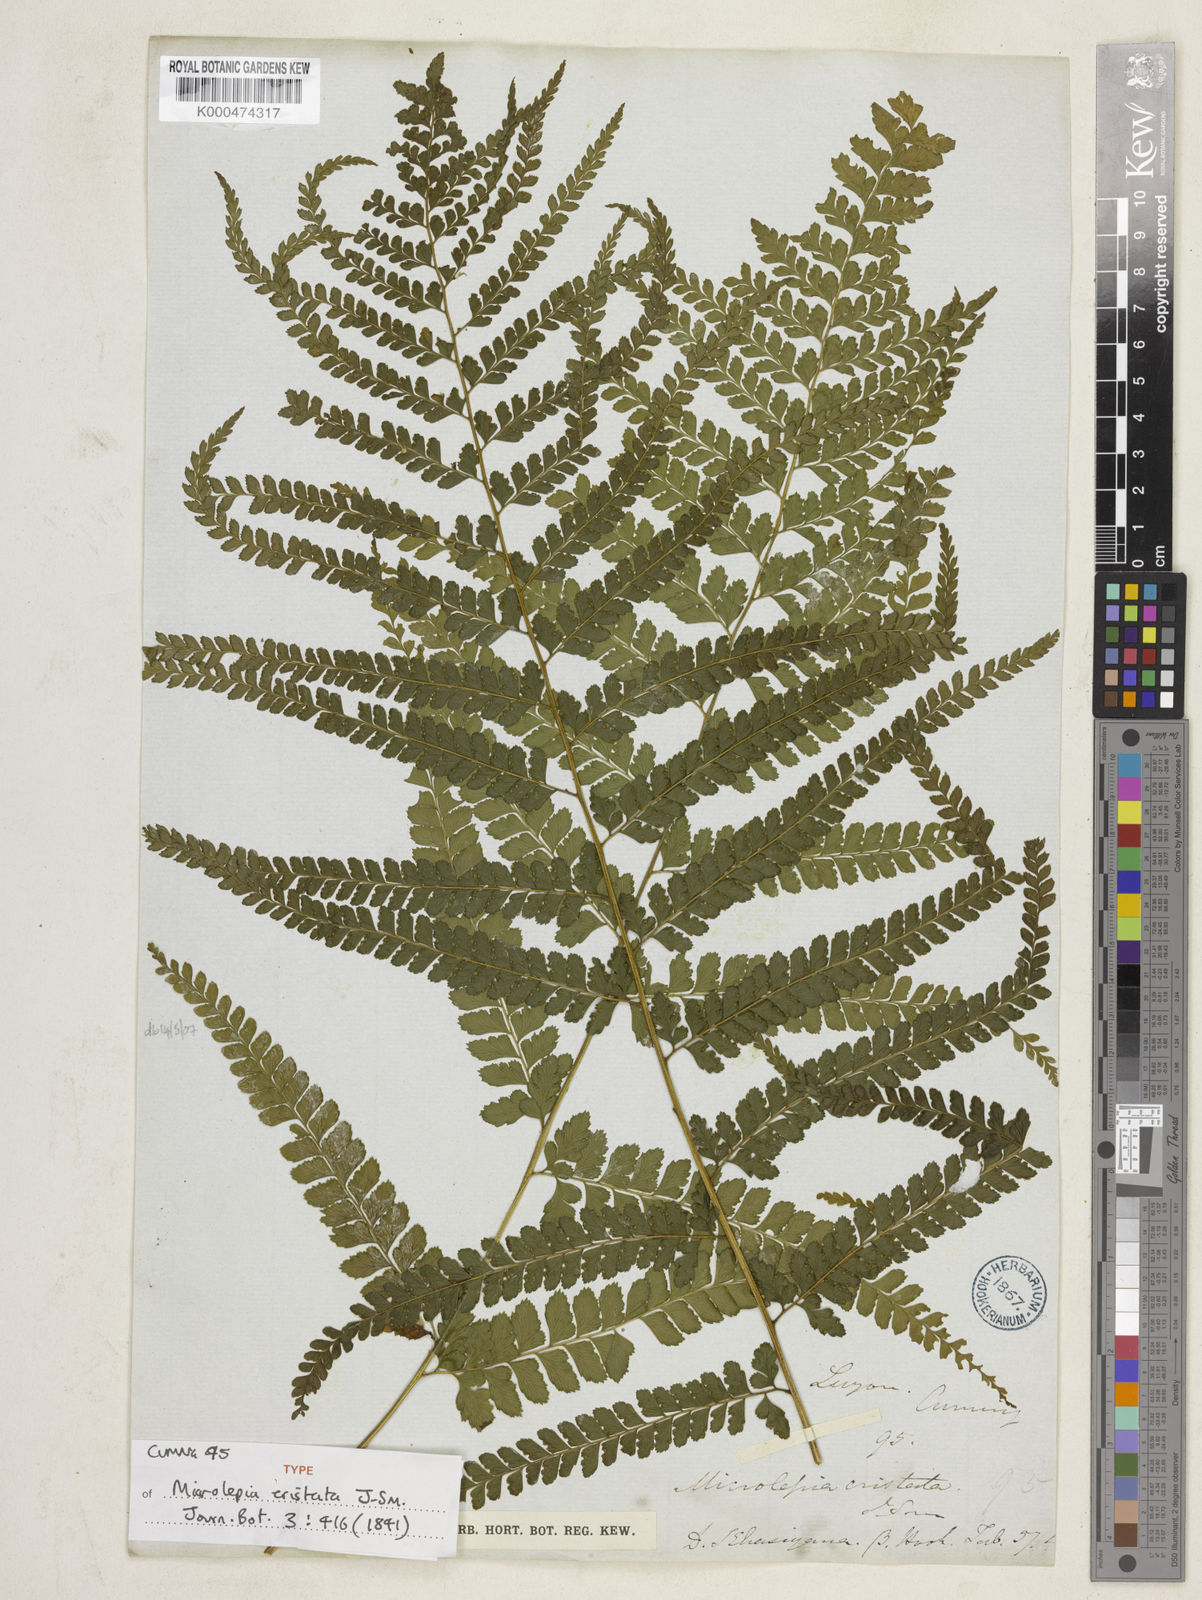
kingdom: Plantae
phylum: Tracheophyta
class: Polypodiopsida
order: Polypodiales
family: Dennstaedtiaceae
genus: Microlepia
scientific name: Microlepia strigosa
